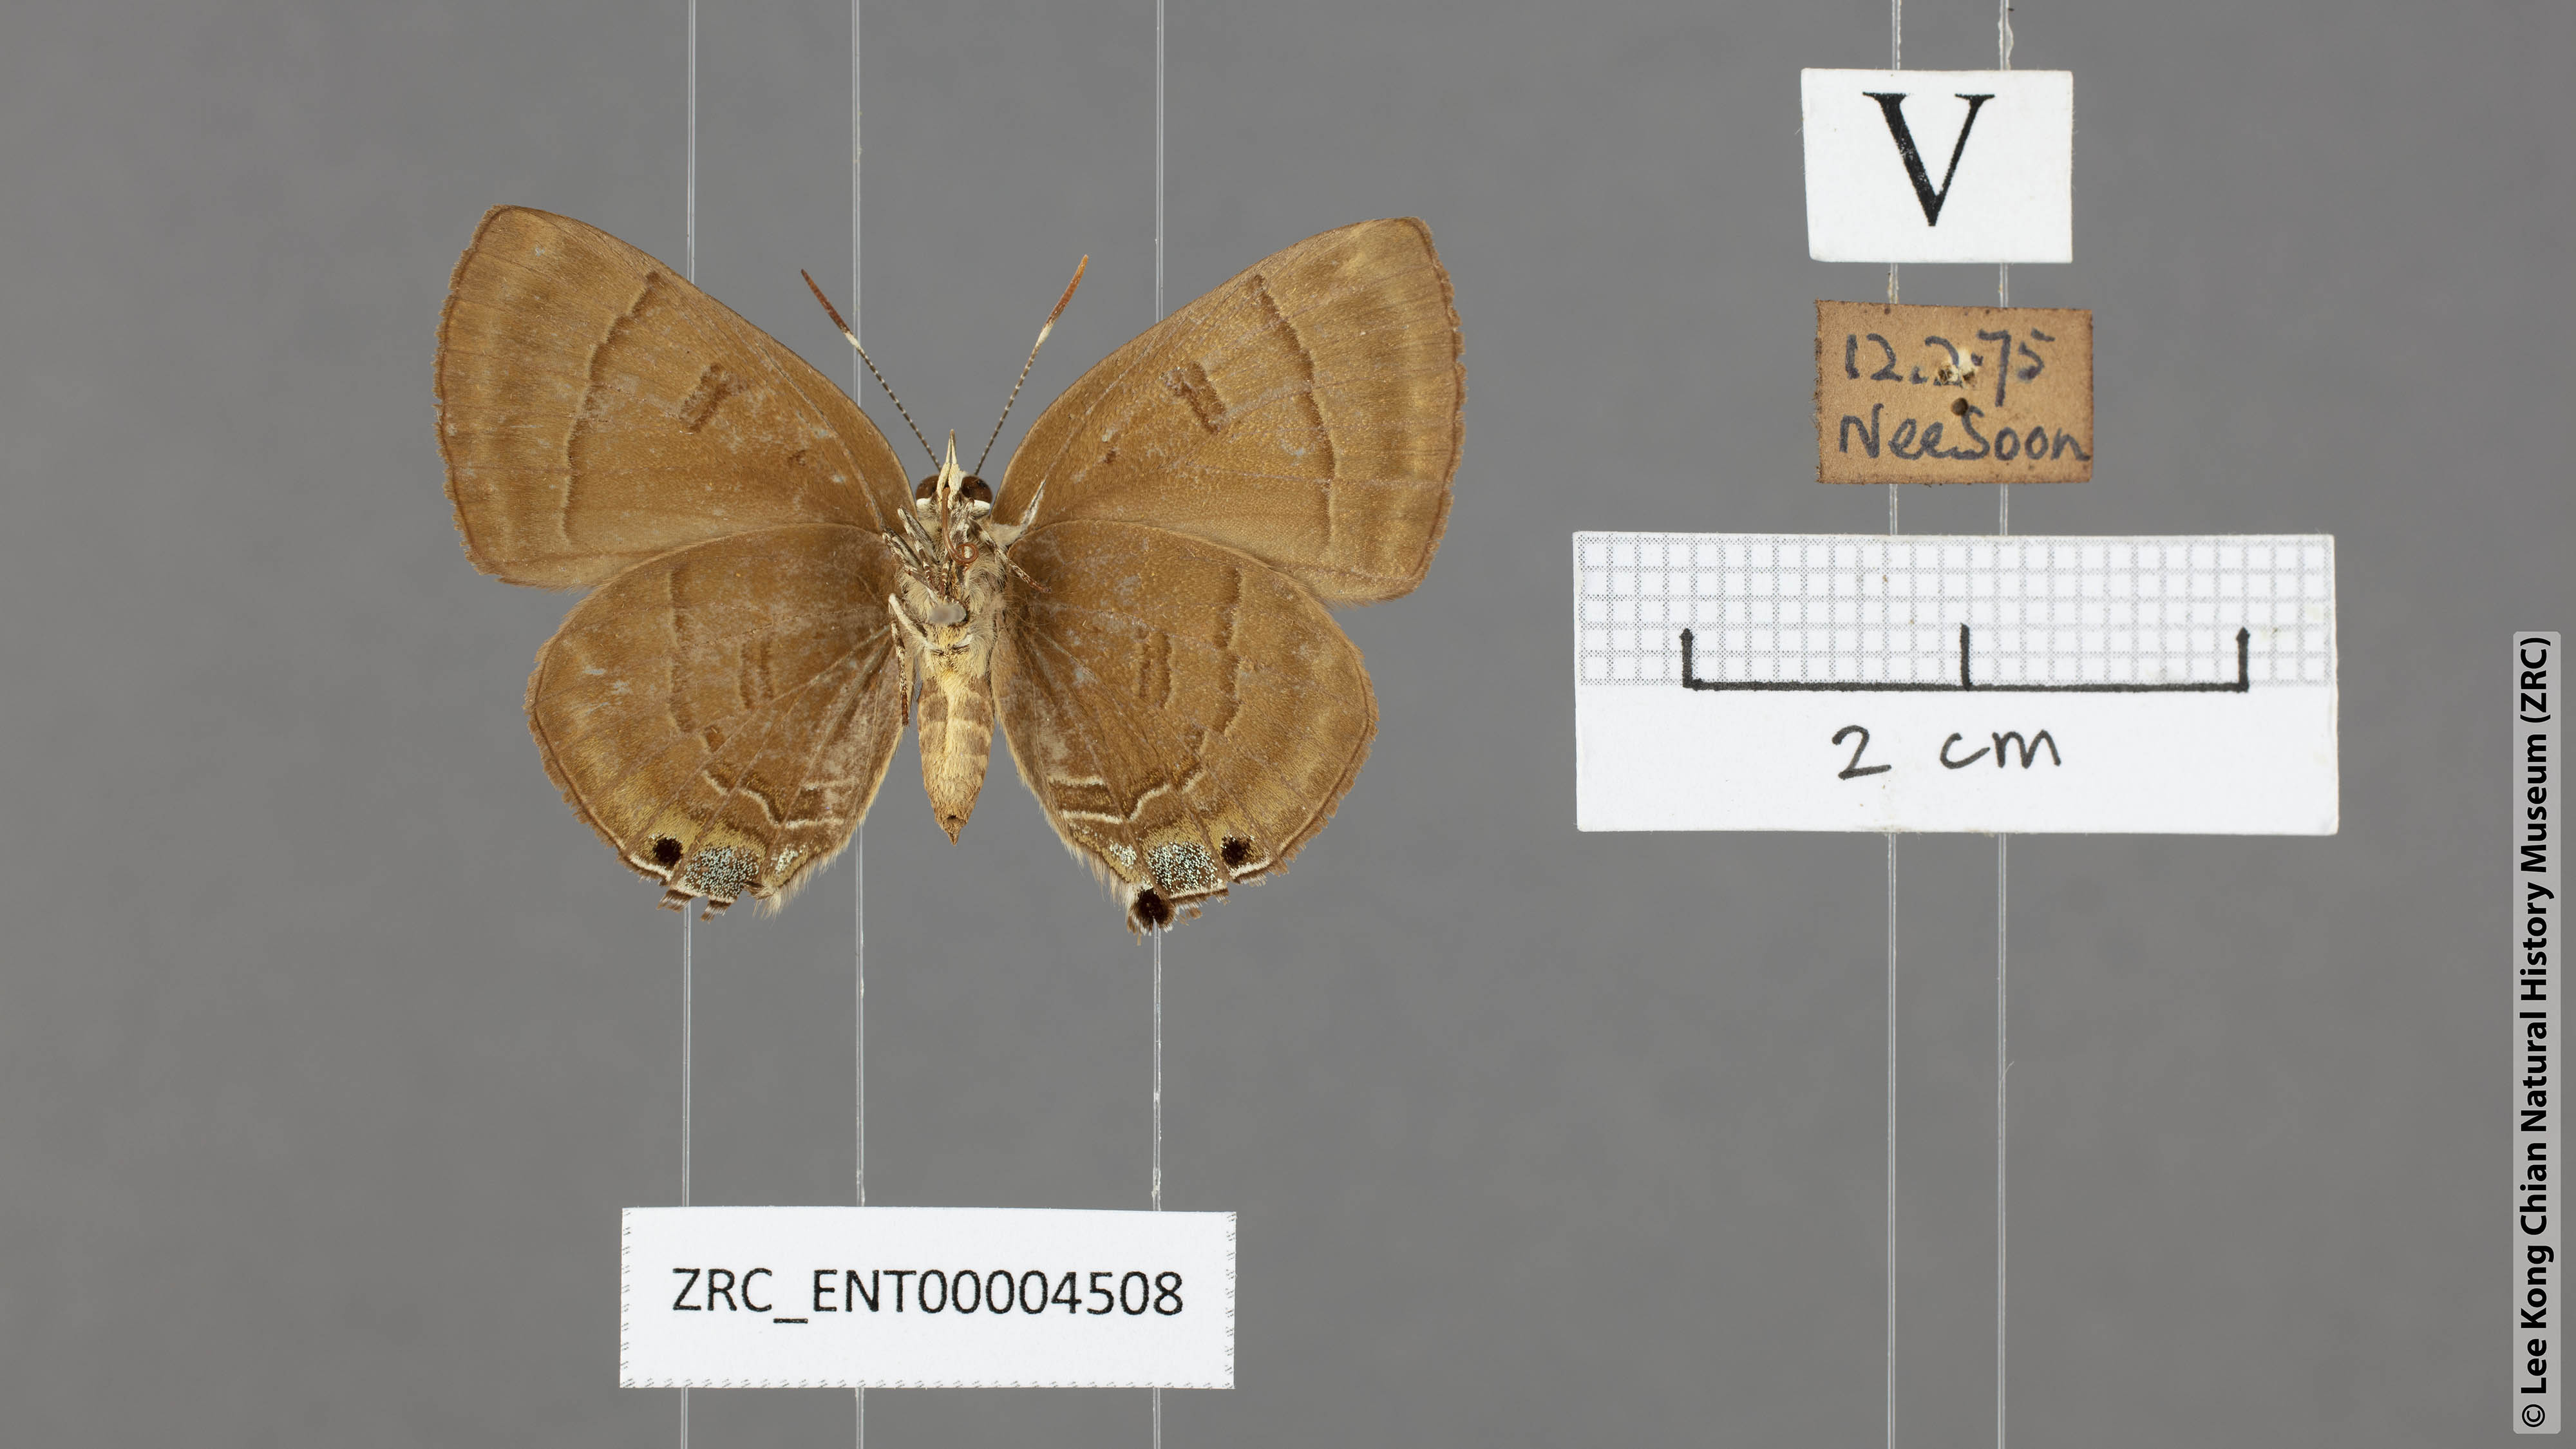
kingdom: Animalia
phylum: Arthropoda
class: Insecta
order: Lepidoptera
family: Lycaenidae
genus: Rapala
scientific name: Rapala pheretima
